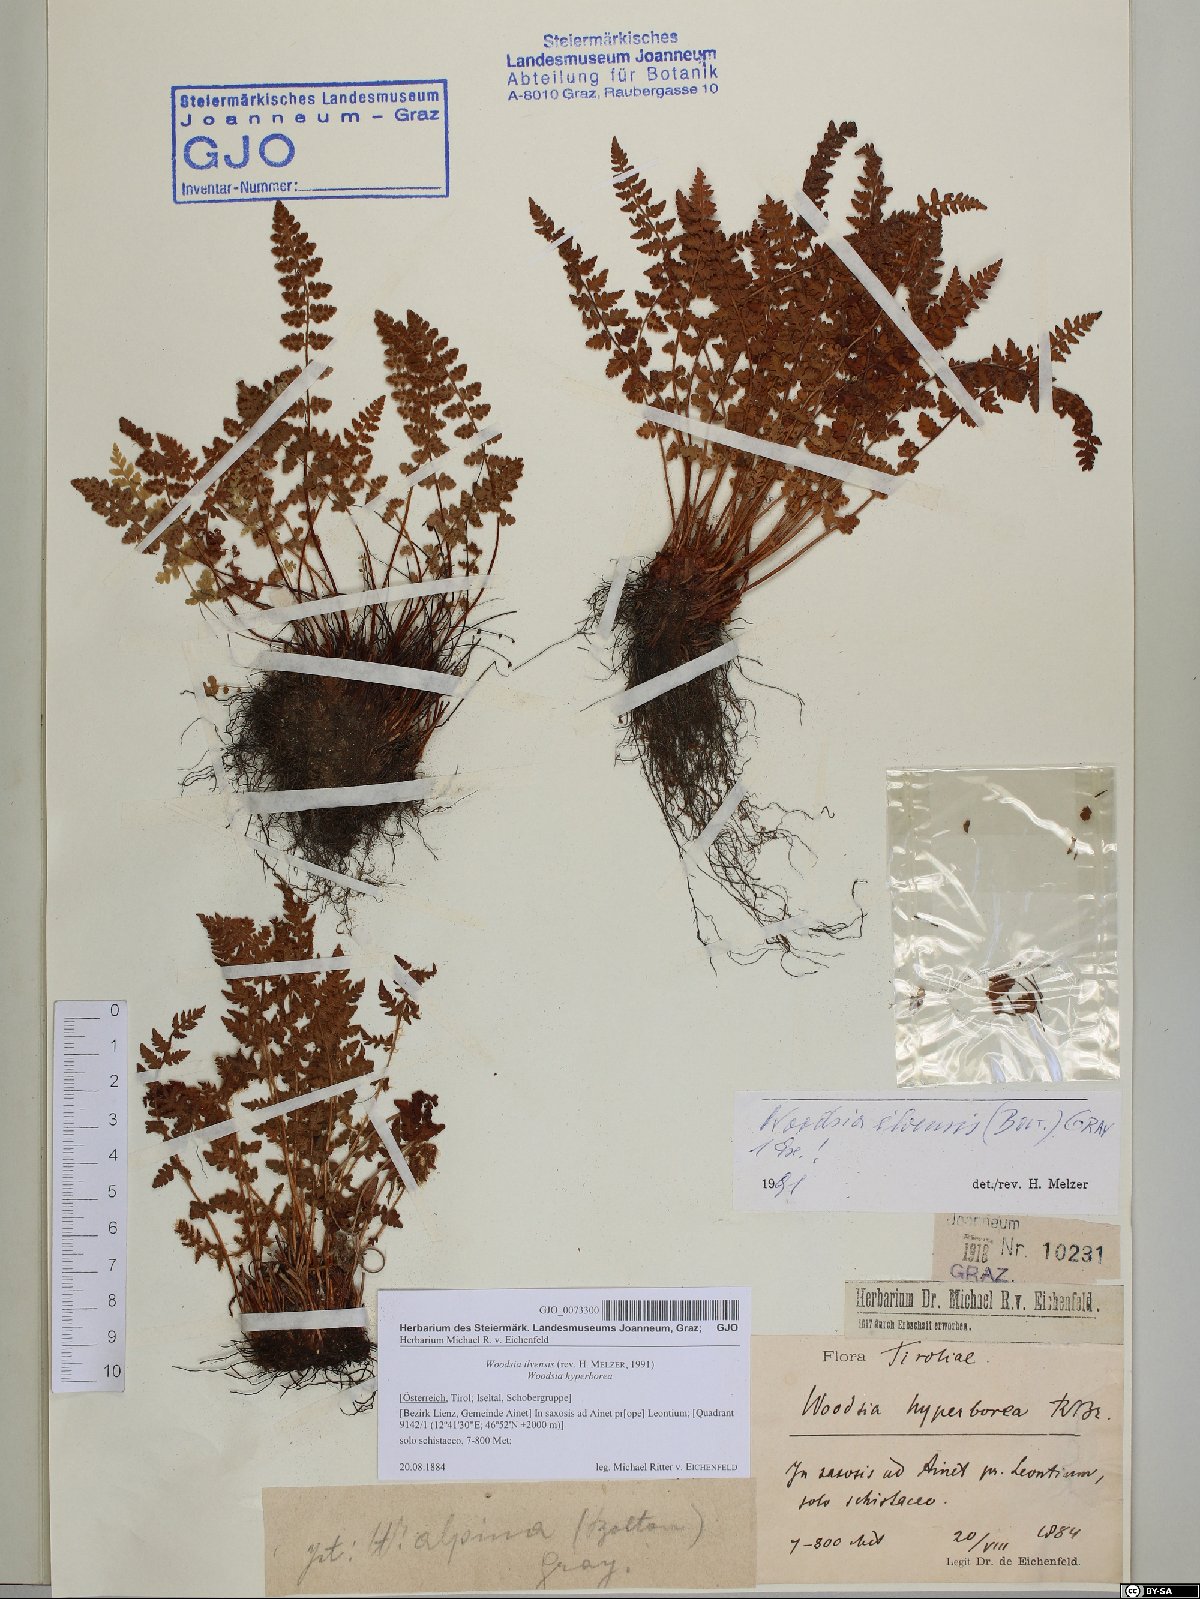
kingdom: Plantae
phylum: Tracheophyta
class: Polypodiopsida
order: Polypodiales
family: Woodsiaceae
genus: Woodsia
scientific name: Woodsia ilvensis
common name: Fragrant woodsia
